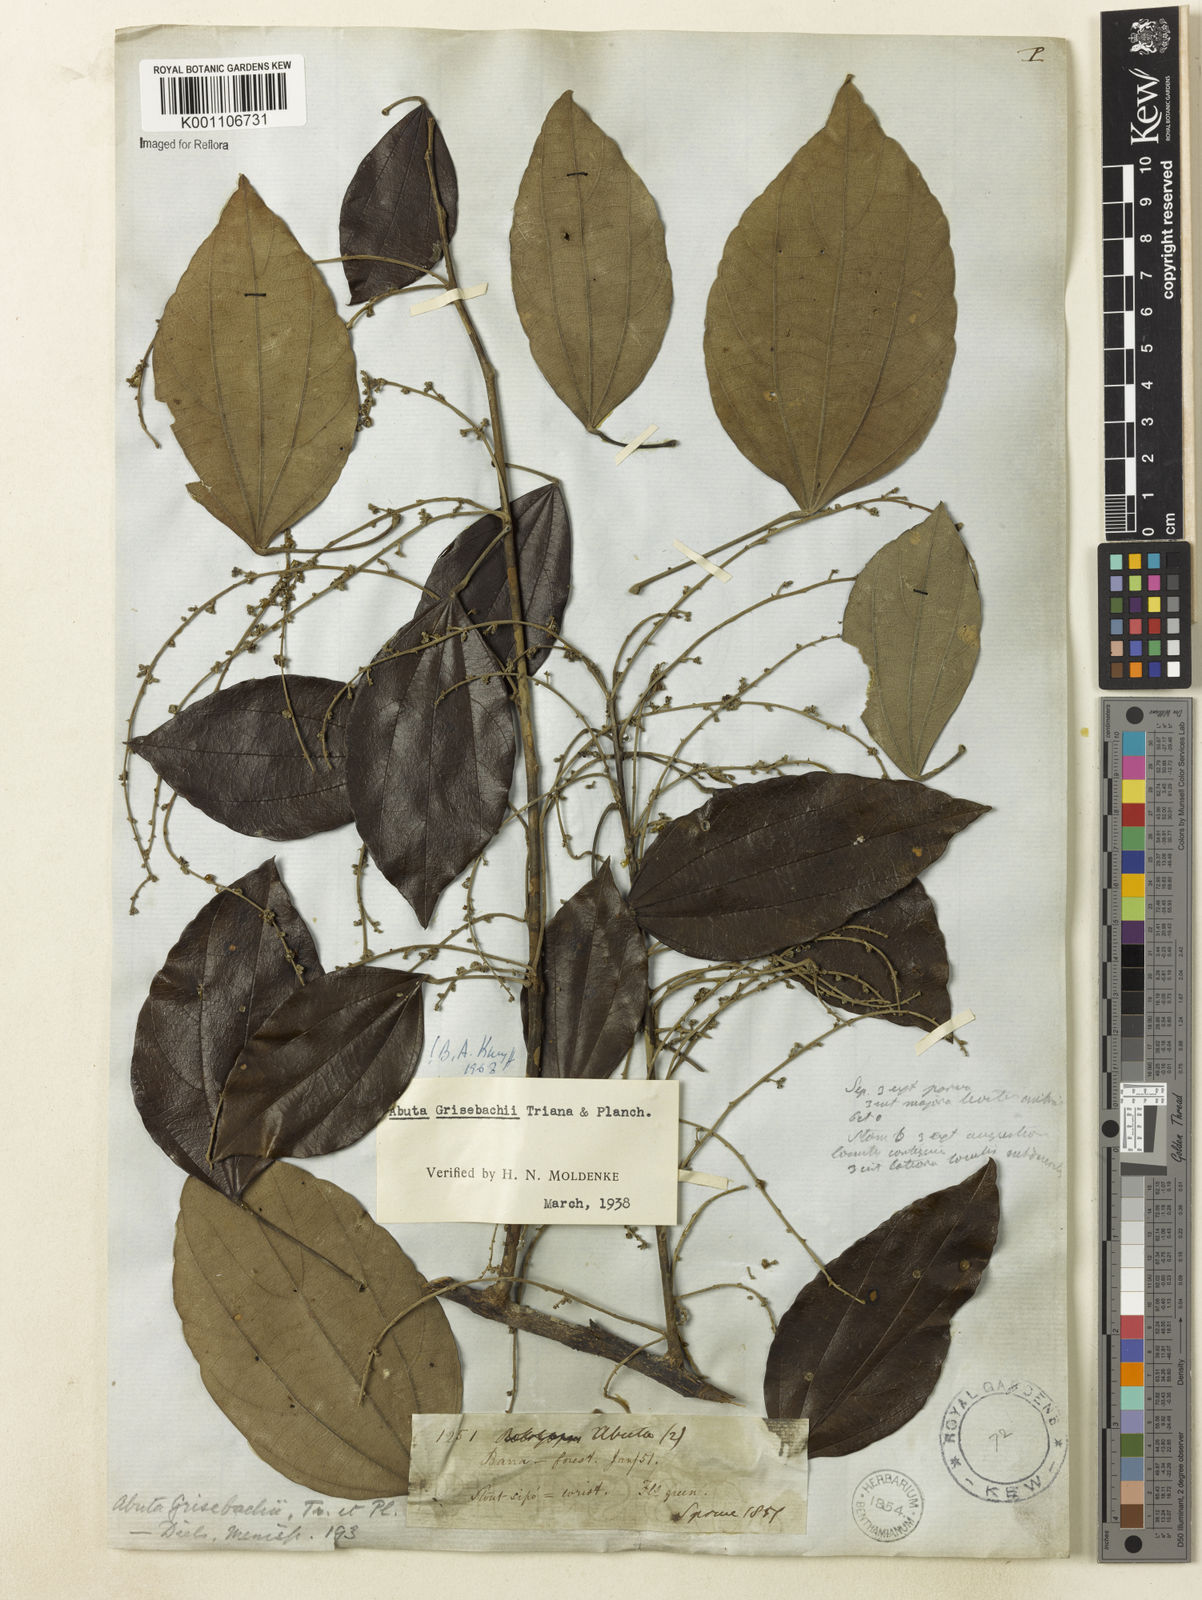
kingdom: Plantae
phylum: Tracheophyta
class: Magnoliopsida
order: Ranunculales
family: Menispermaceae
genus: Abuta
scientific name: Abuta grisebachii
